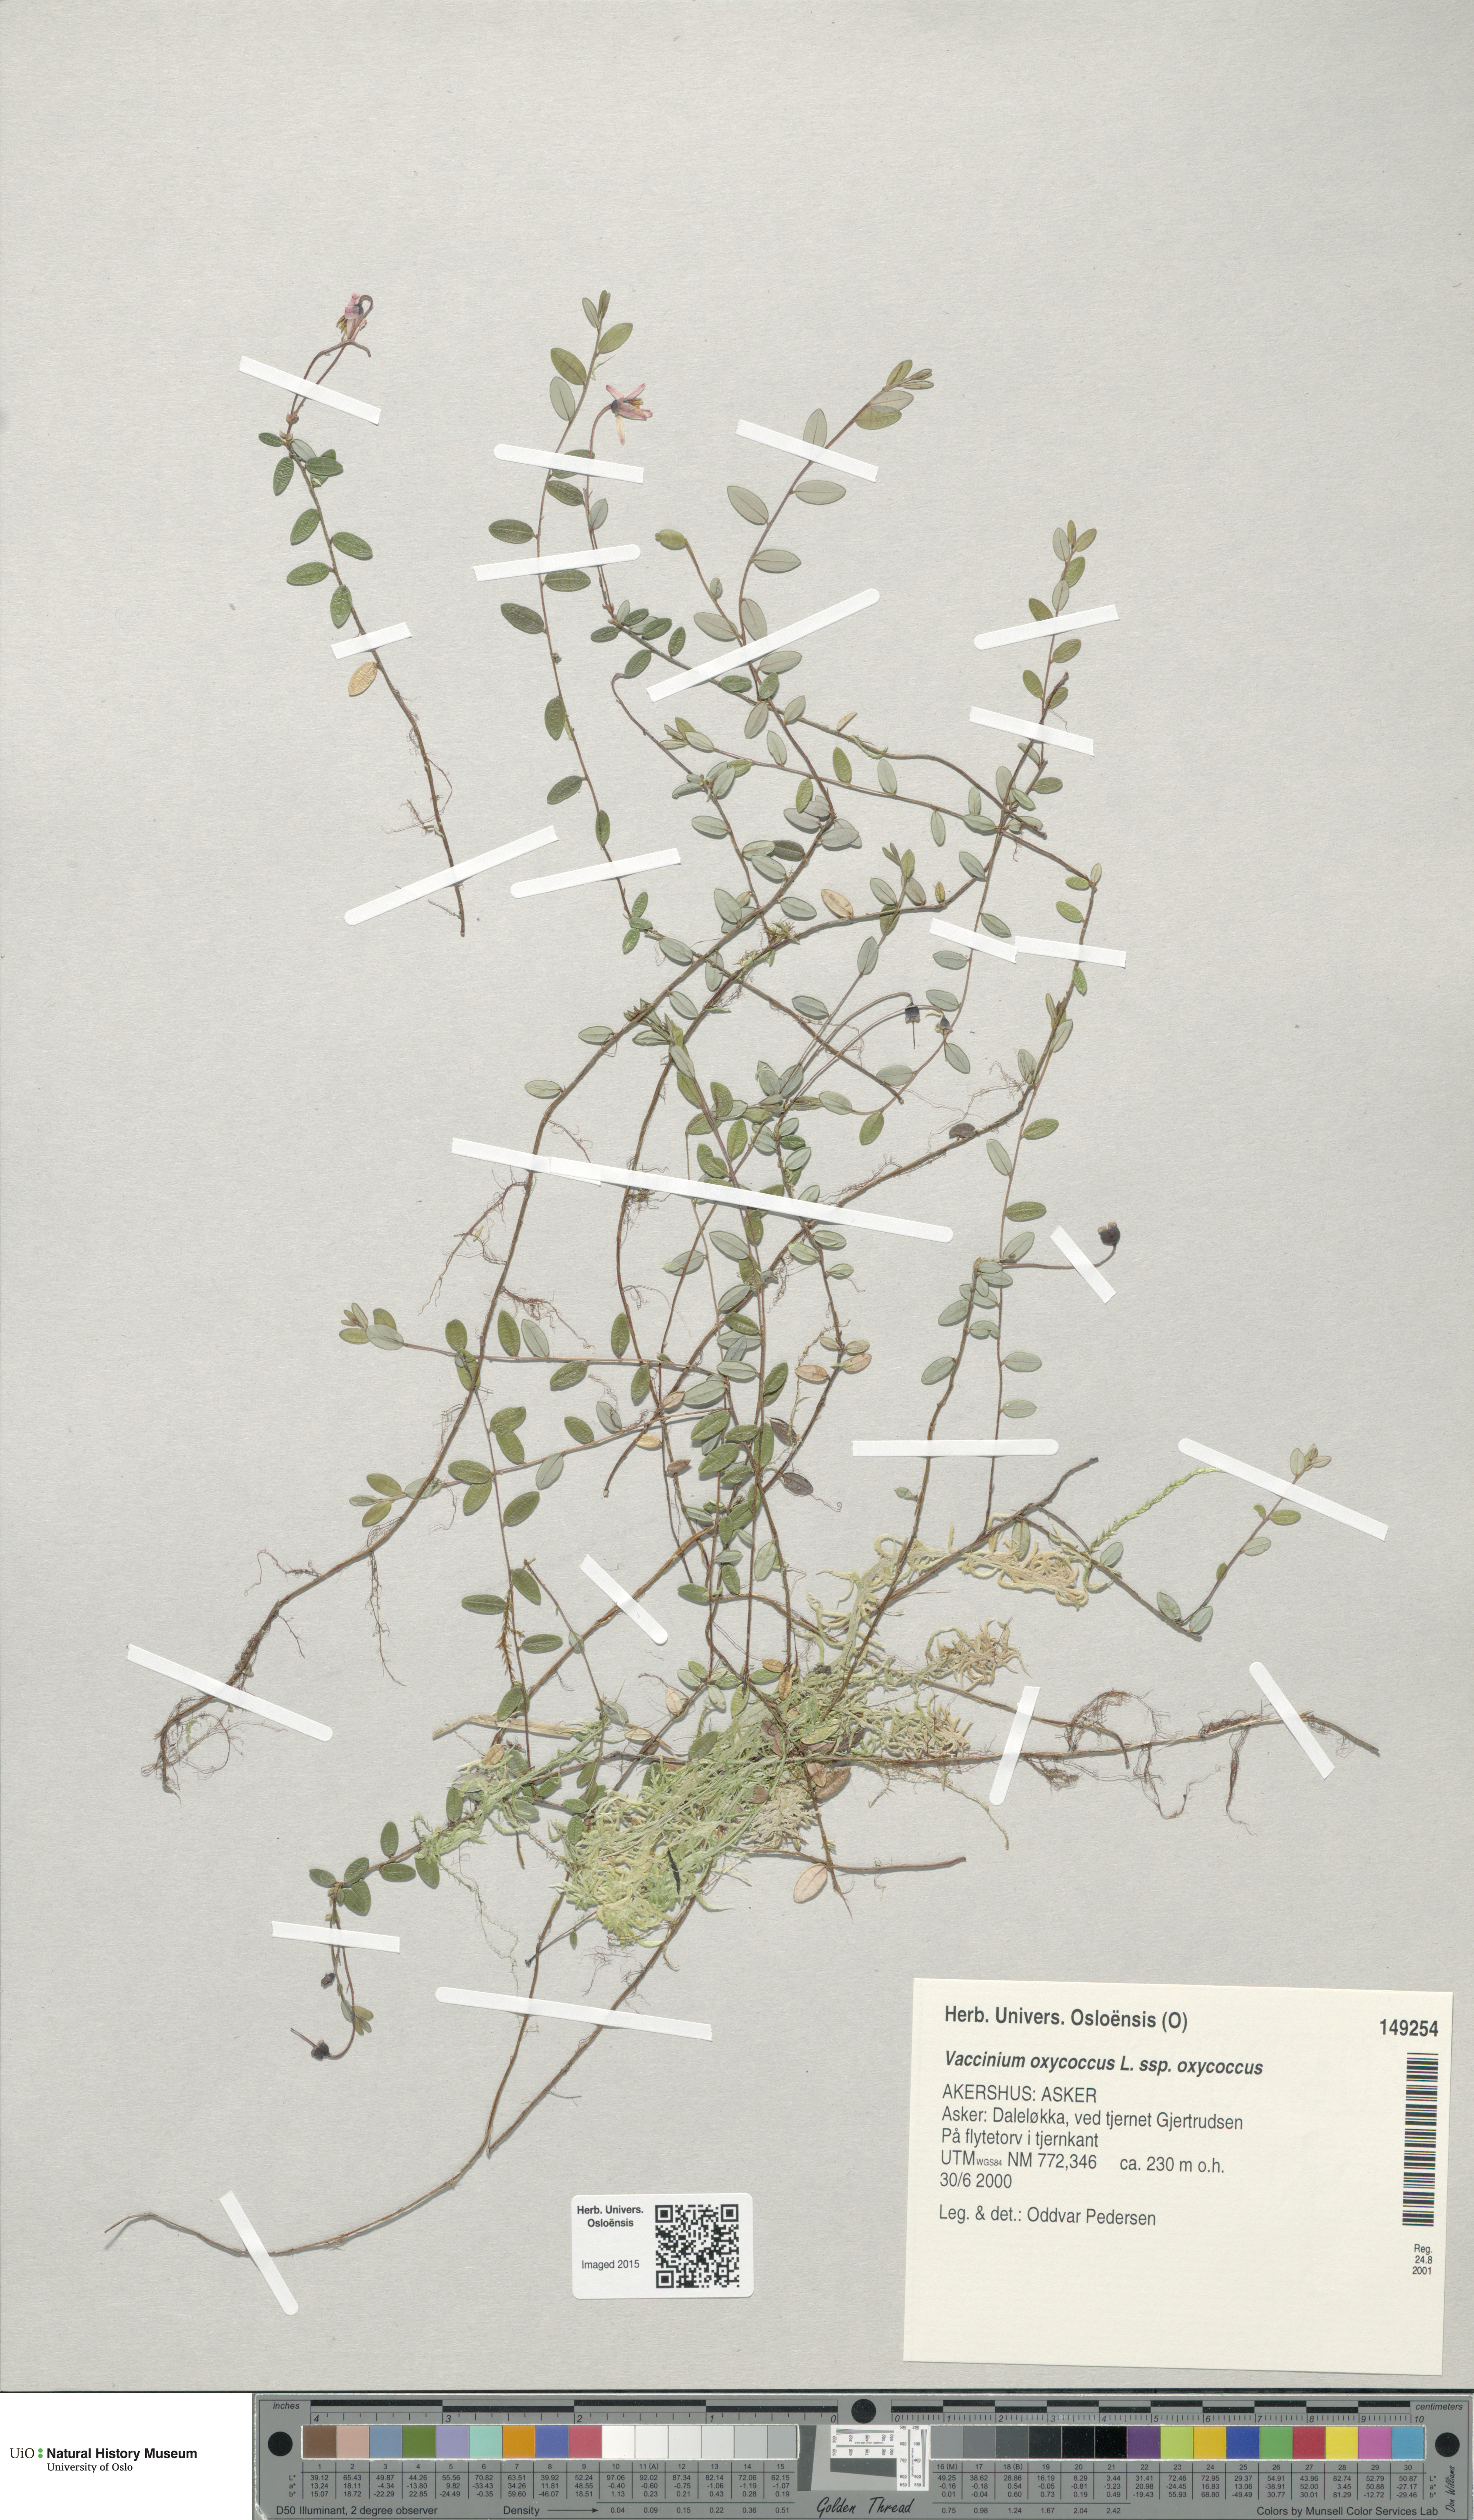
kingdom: Plantae
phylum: Tracheophyta
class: Magnoliopsida
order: Ericales
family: Ericaceae
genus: Vaccinium
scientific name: Vaccinium oxycoccos
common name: Cranberry
